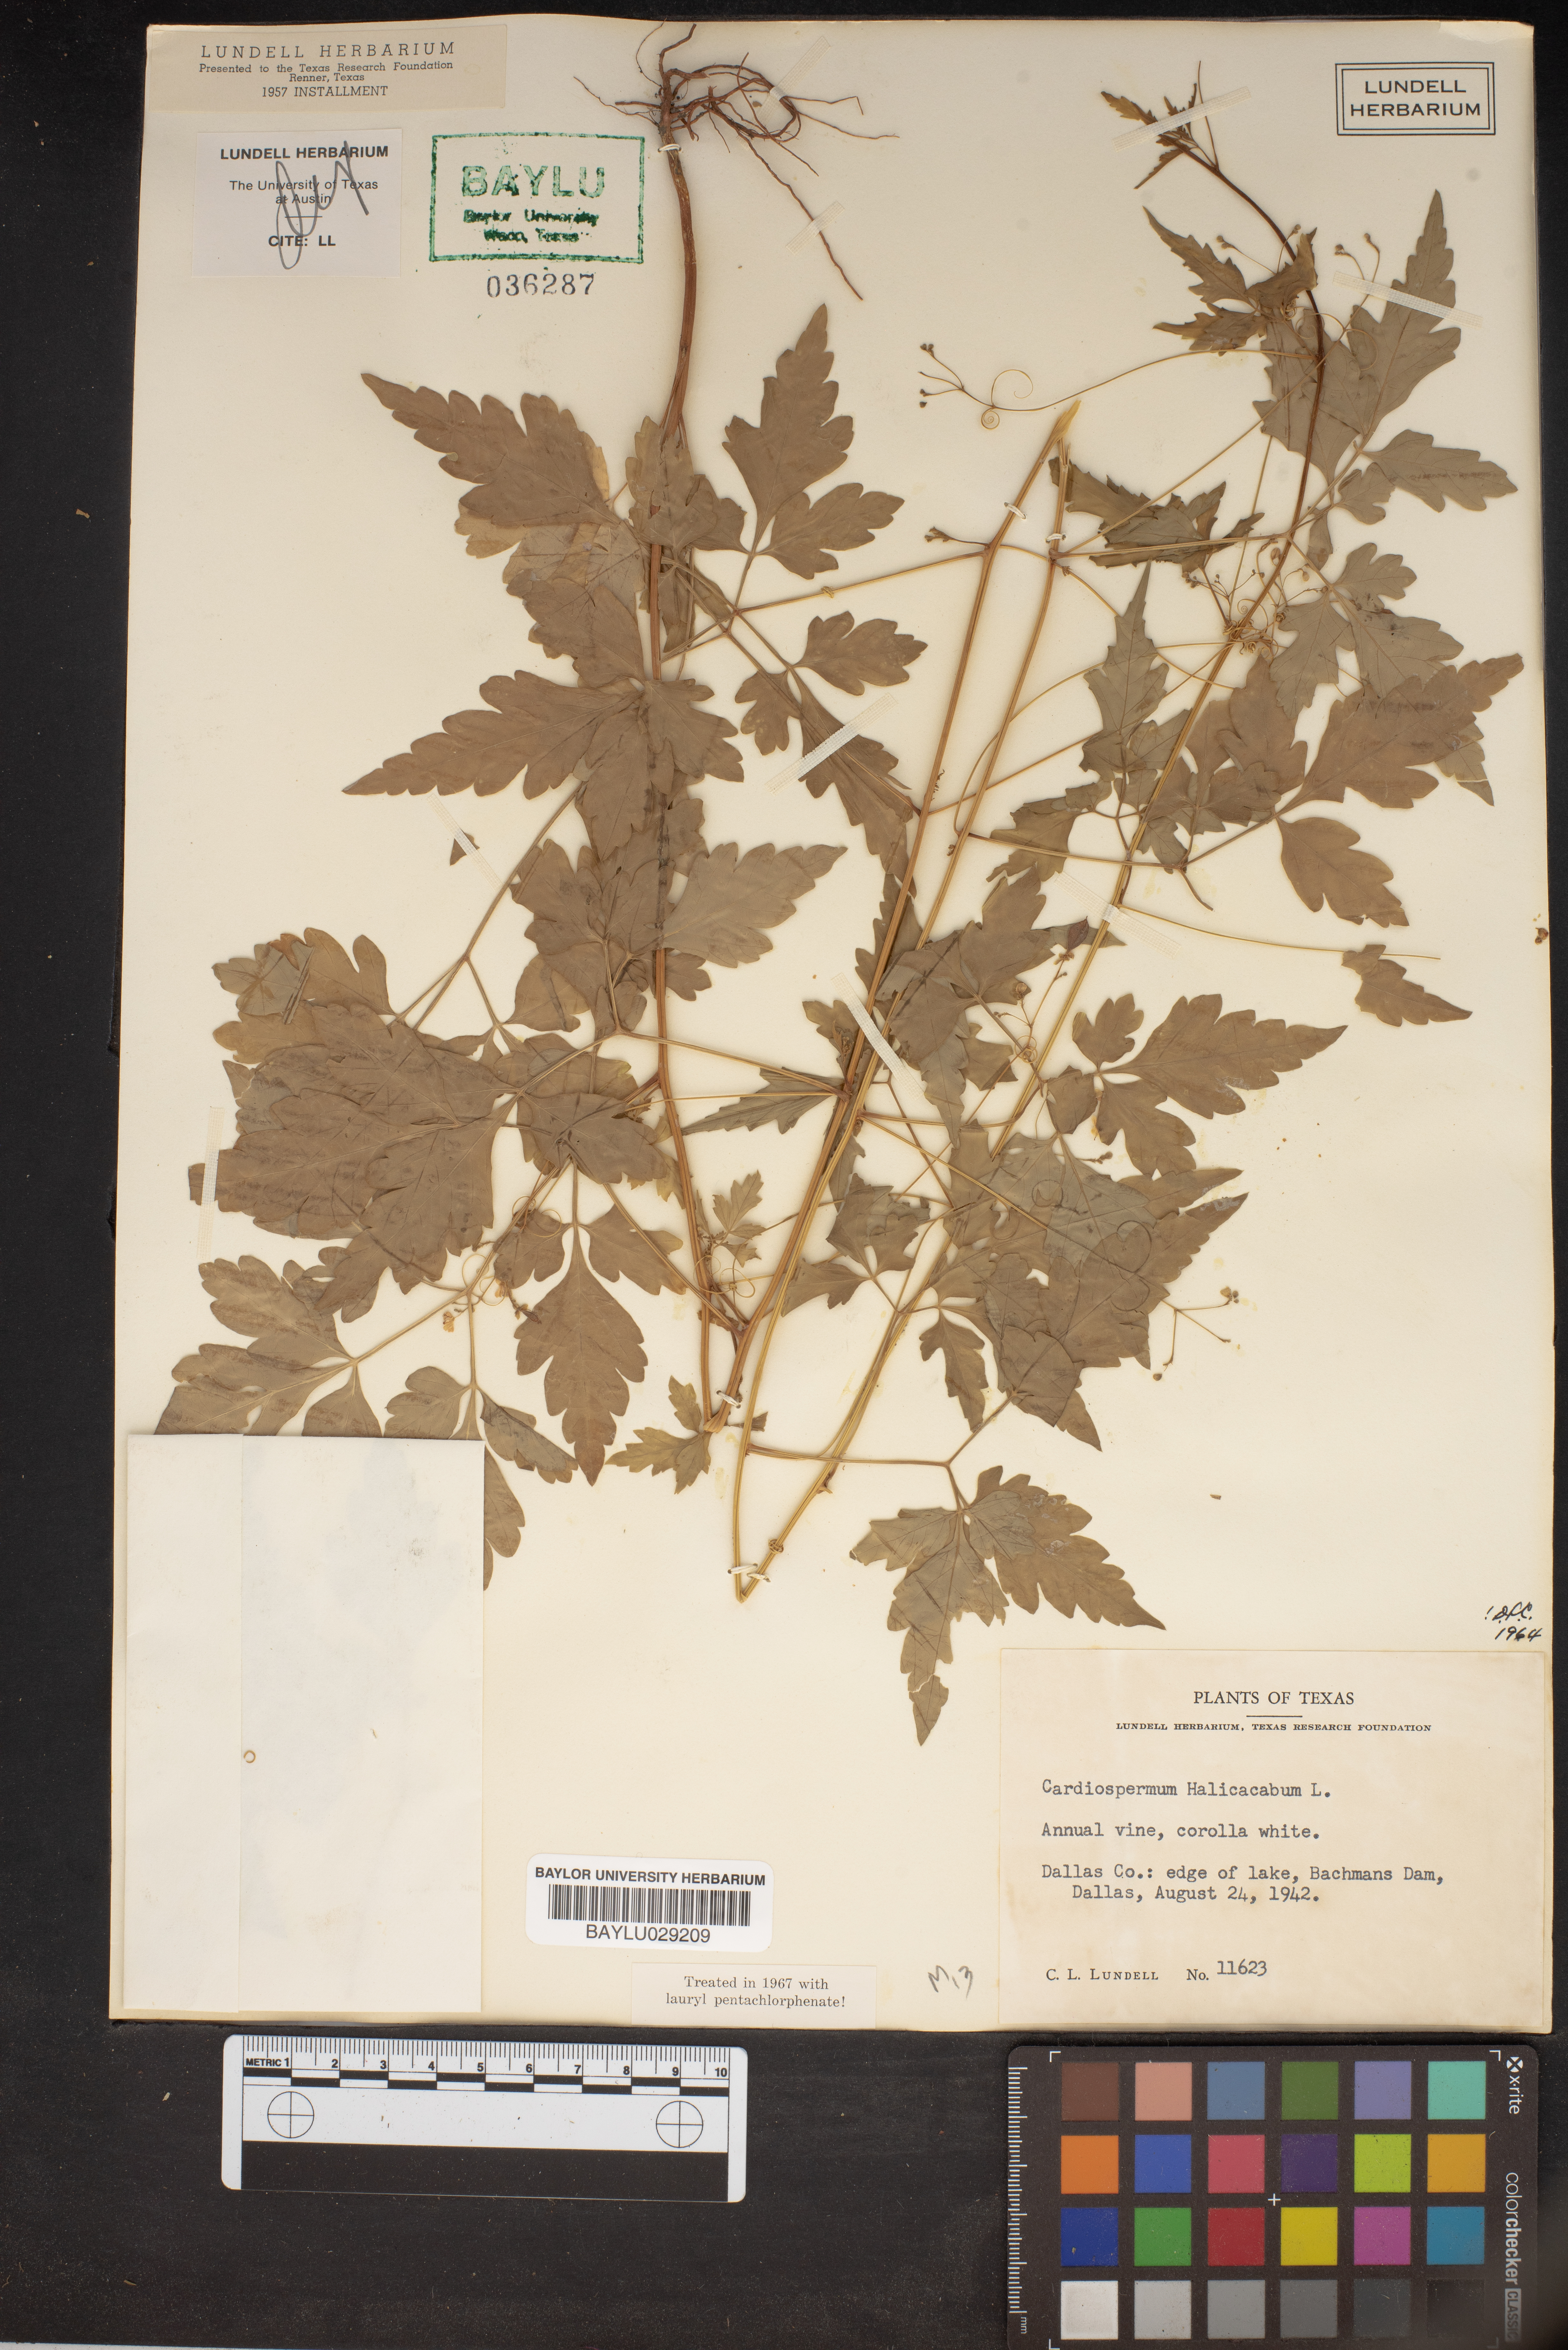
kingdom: Plantae
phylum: Tracheophyta
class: Magnoliopsida
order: Sapindales
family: Sapindaceae
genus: Cardiospermum
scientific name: Cardiospermum halicacabum
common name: Balloon vine
